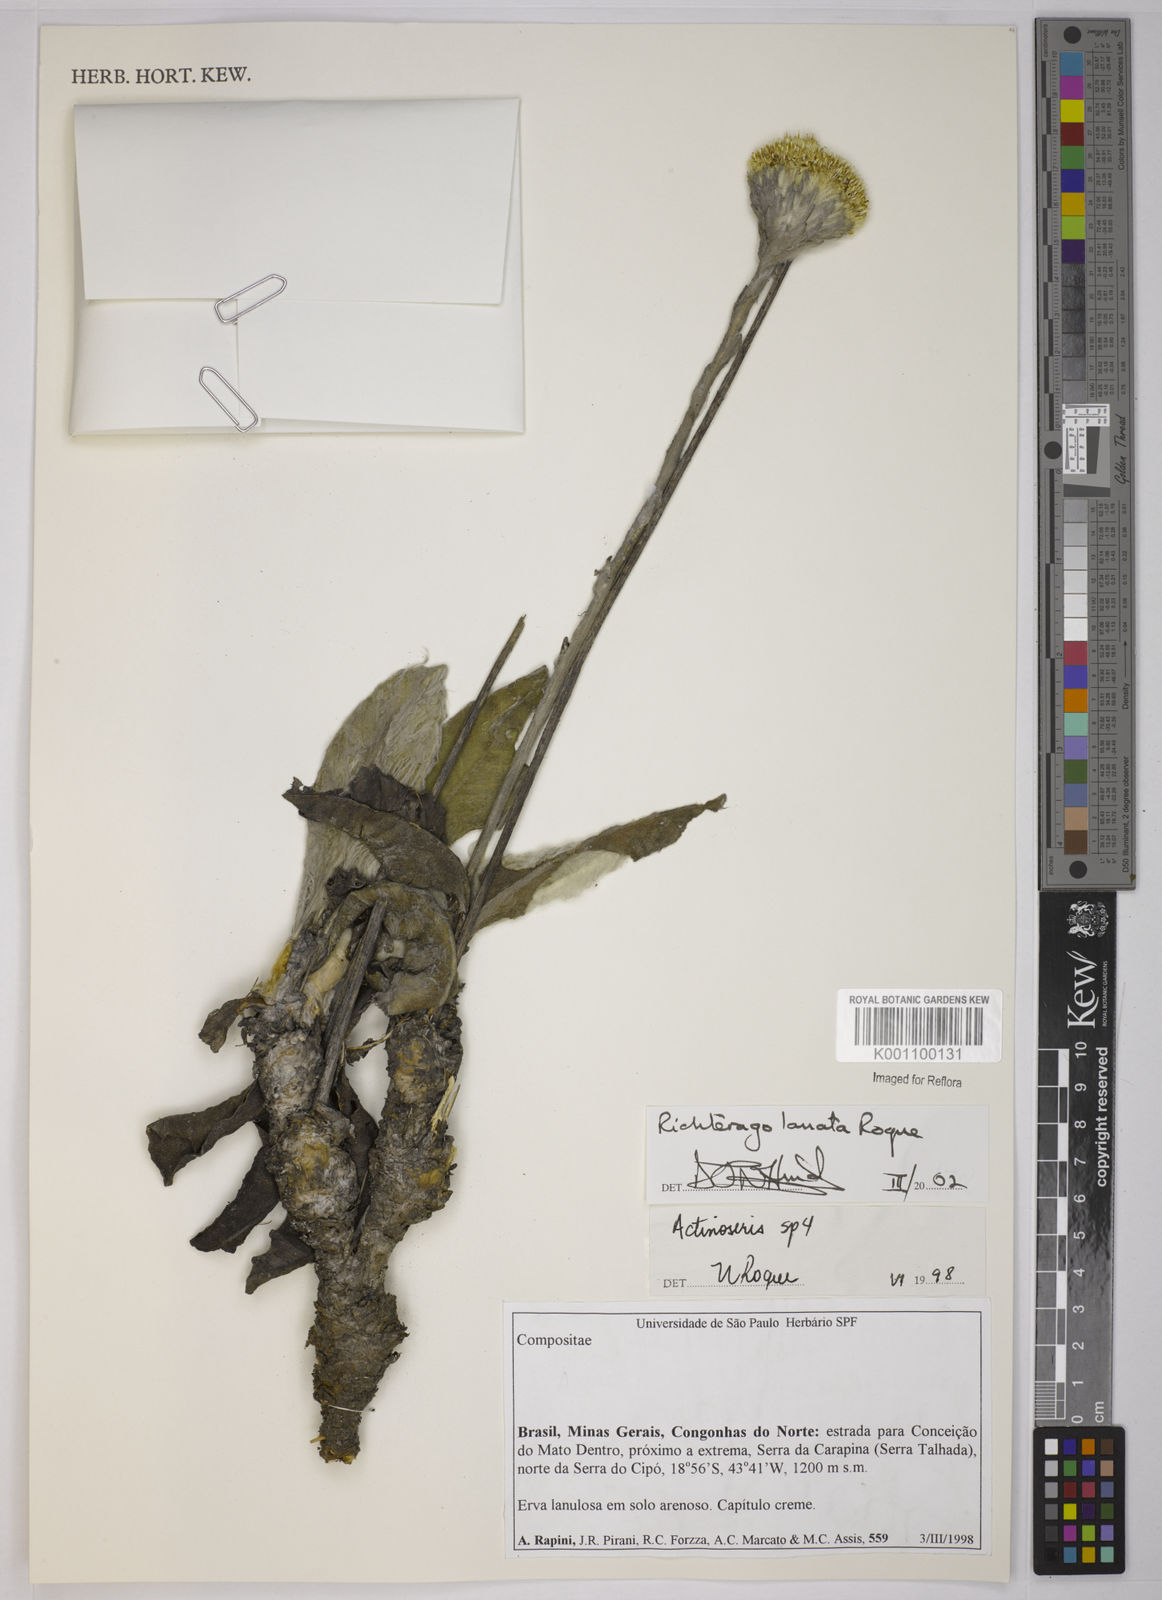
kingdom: Plantae
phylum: Tracheophyta
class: Magnoliopsida
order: Asterales
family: Asteraceae
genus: Richterago
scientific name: Richterago lanata
